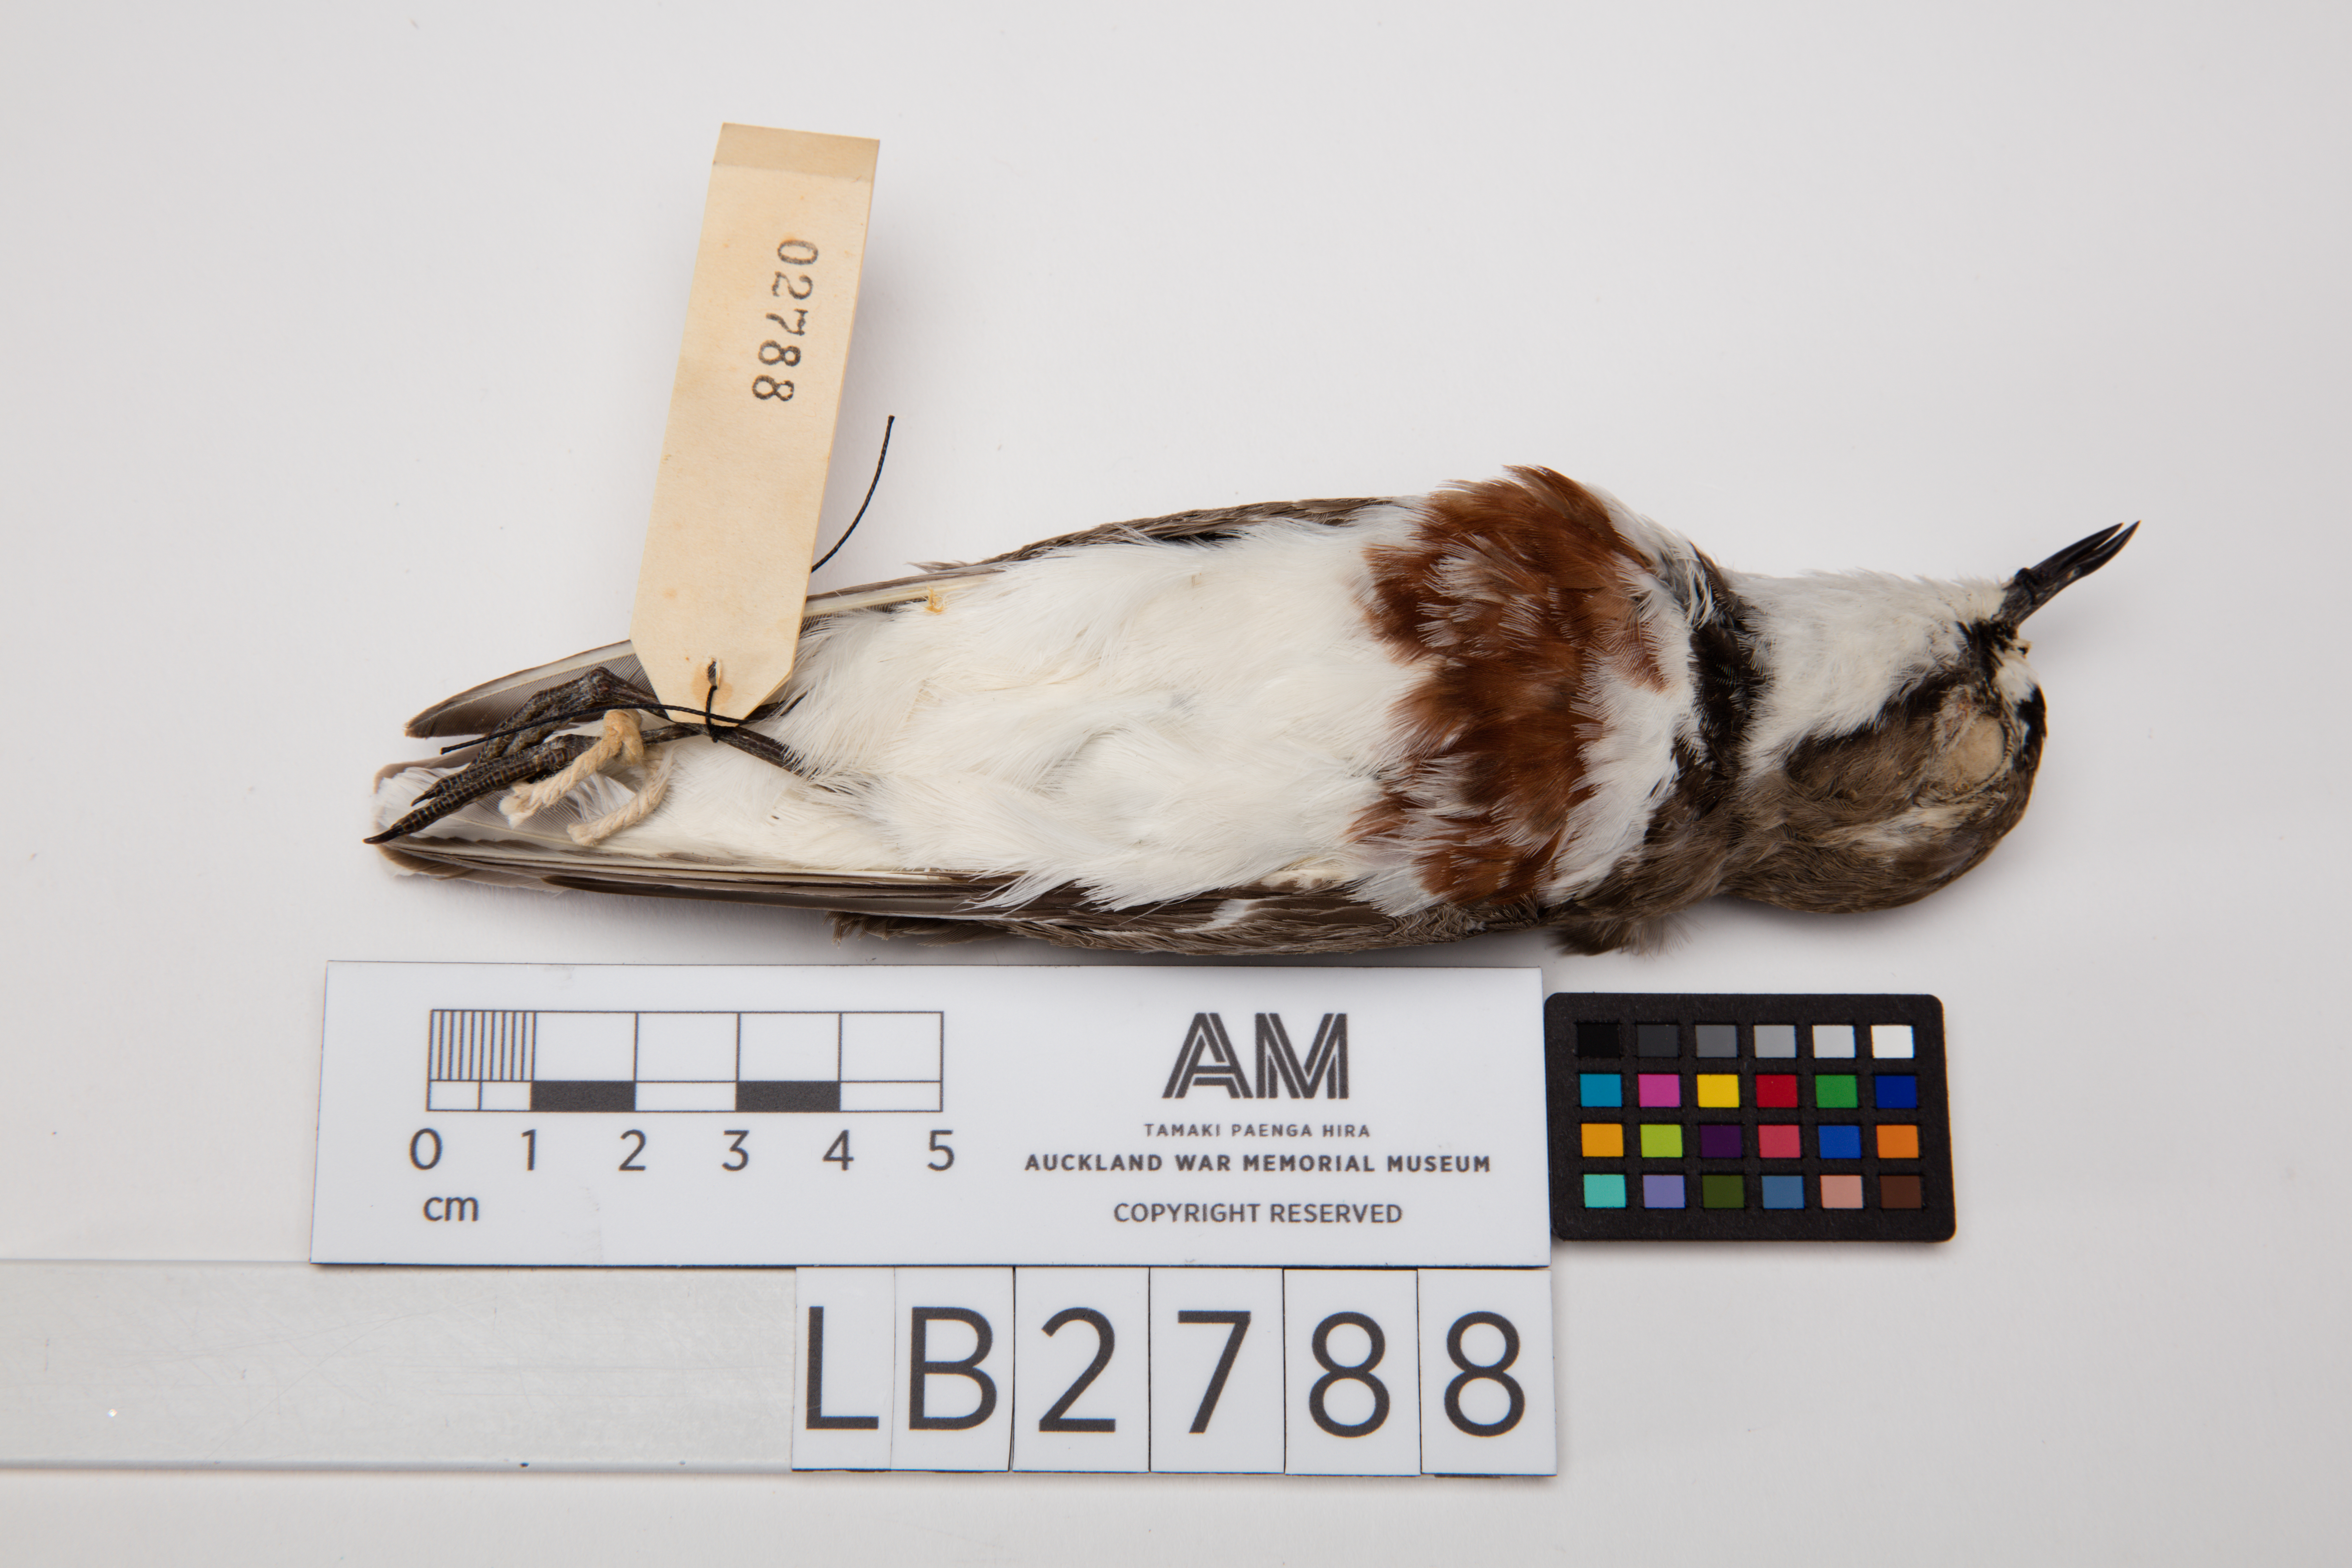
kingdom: Animalia
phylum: Chordata
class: Aves
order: Charadriiformes
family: Charadriidae
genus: Charadrius
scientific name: Charadrius bicinctus
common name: Double-banded plover
